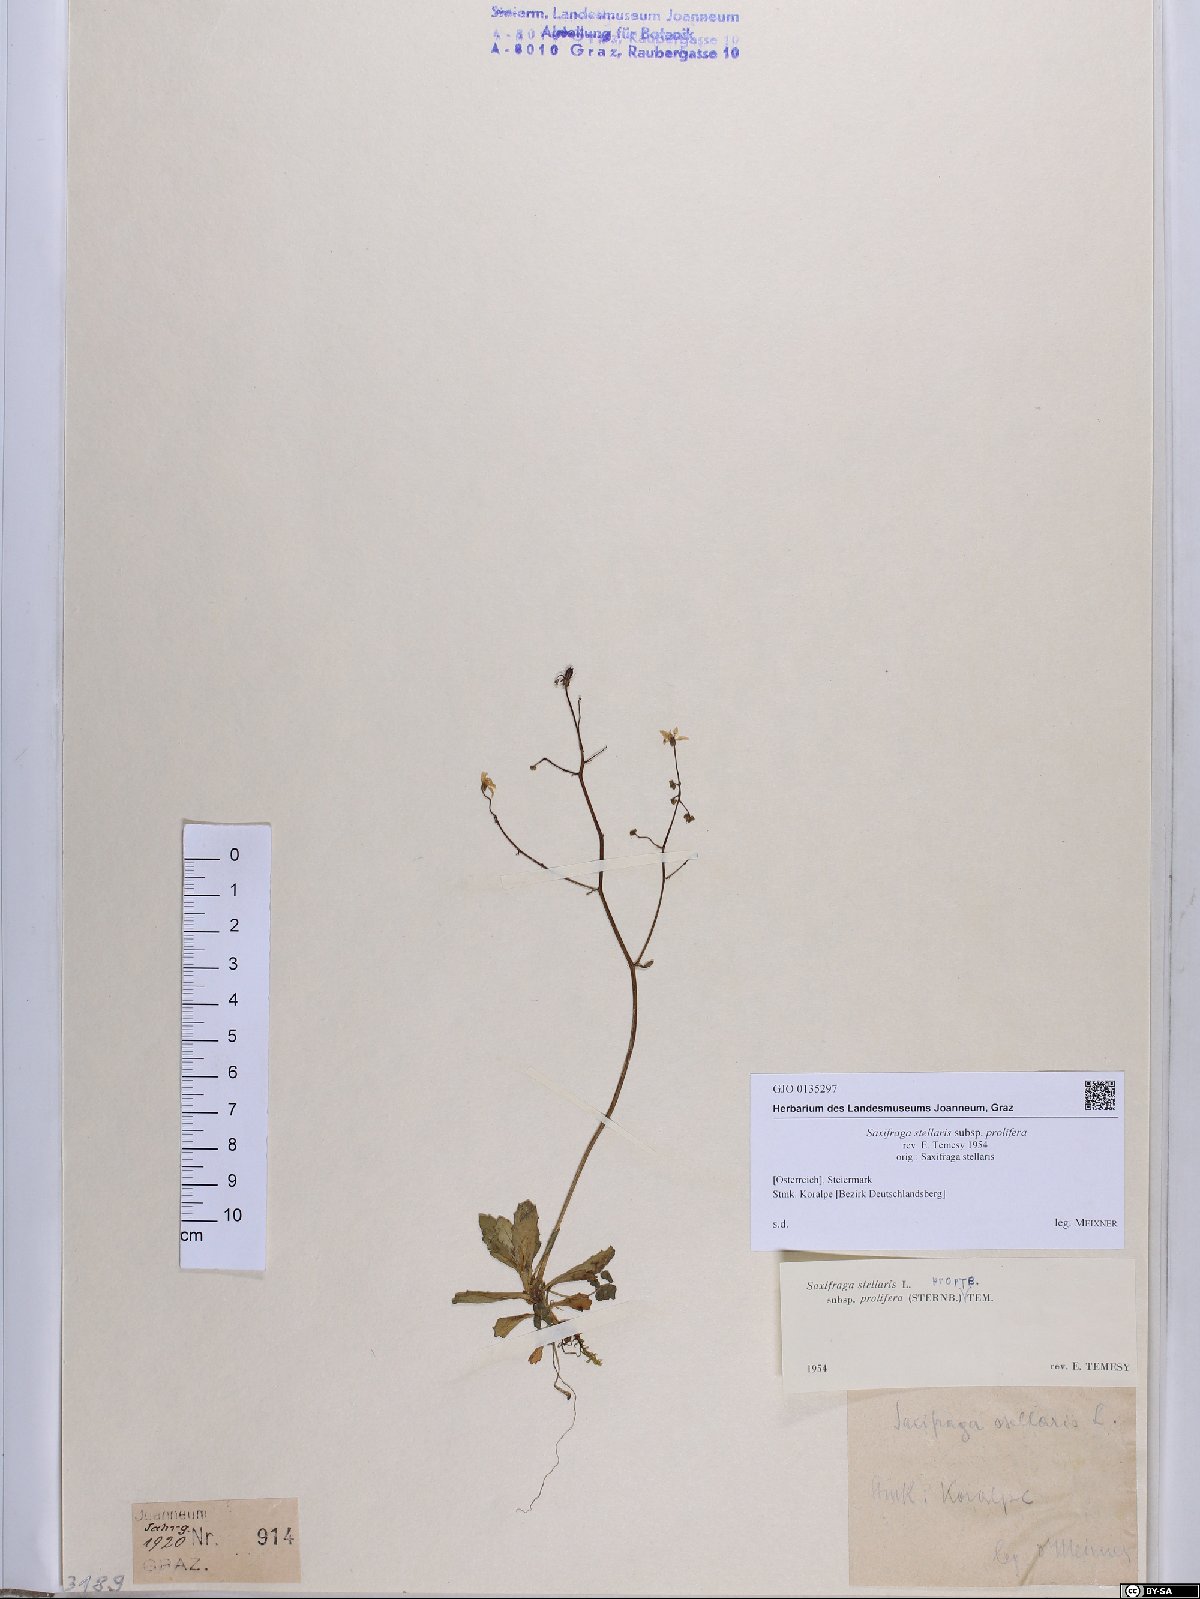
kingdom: Plantae
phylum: Tracheophyta
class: Magnoliopsida
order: Saxifragales
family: Saxifragaceae
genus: Micranthes
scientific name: Micranthes stellaris
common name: Starry saxifrage
